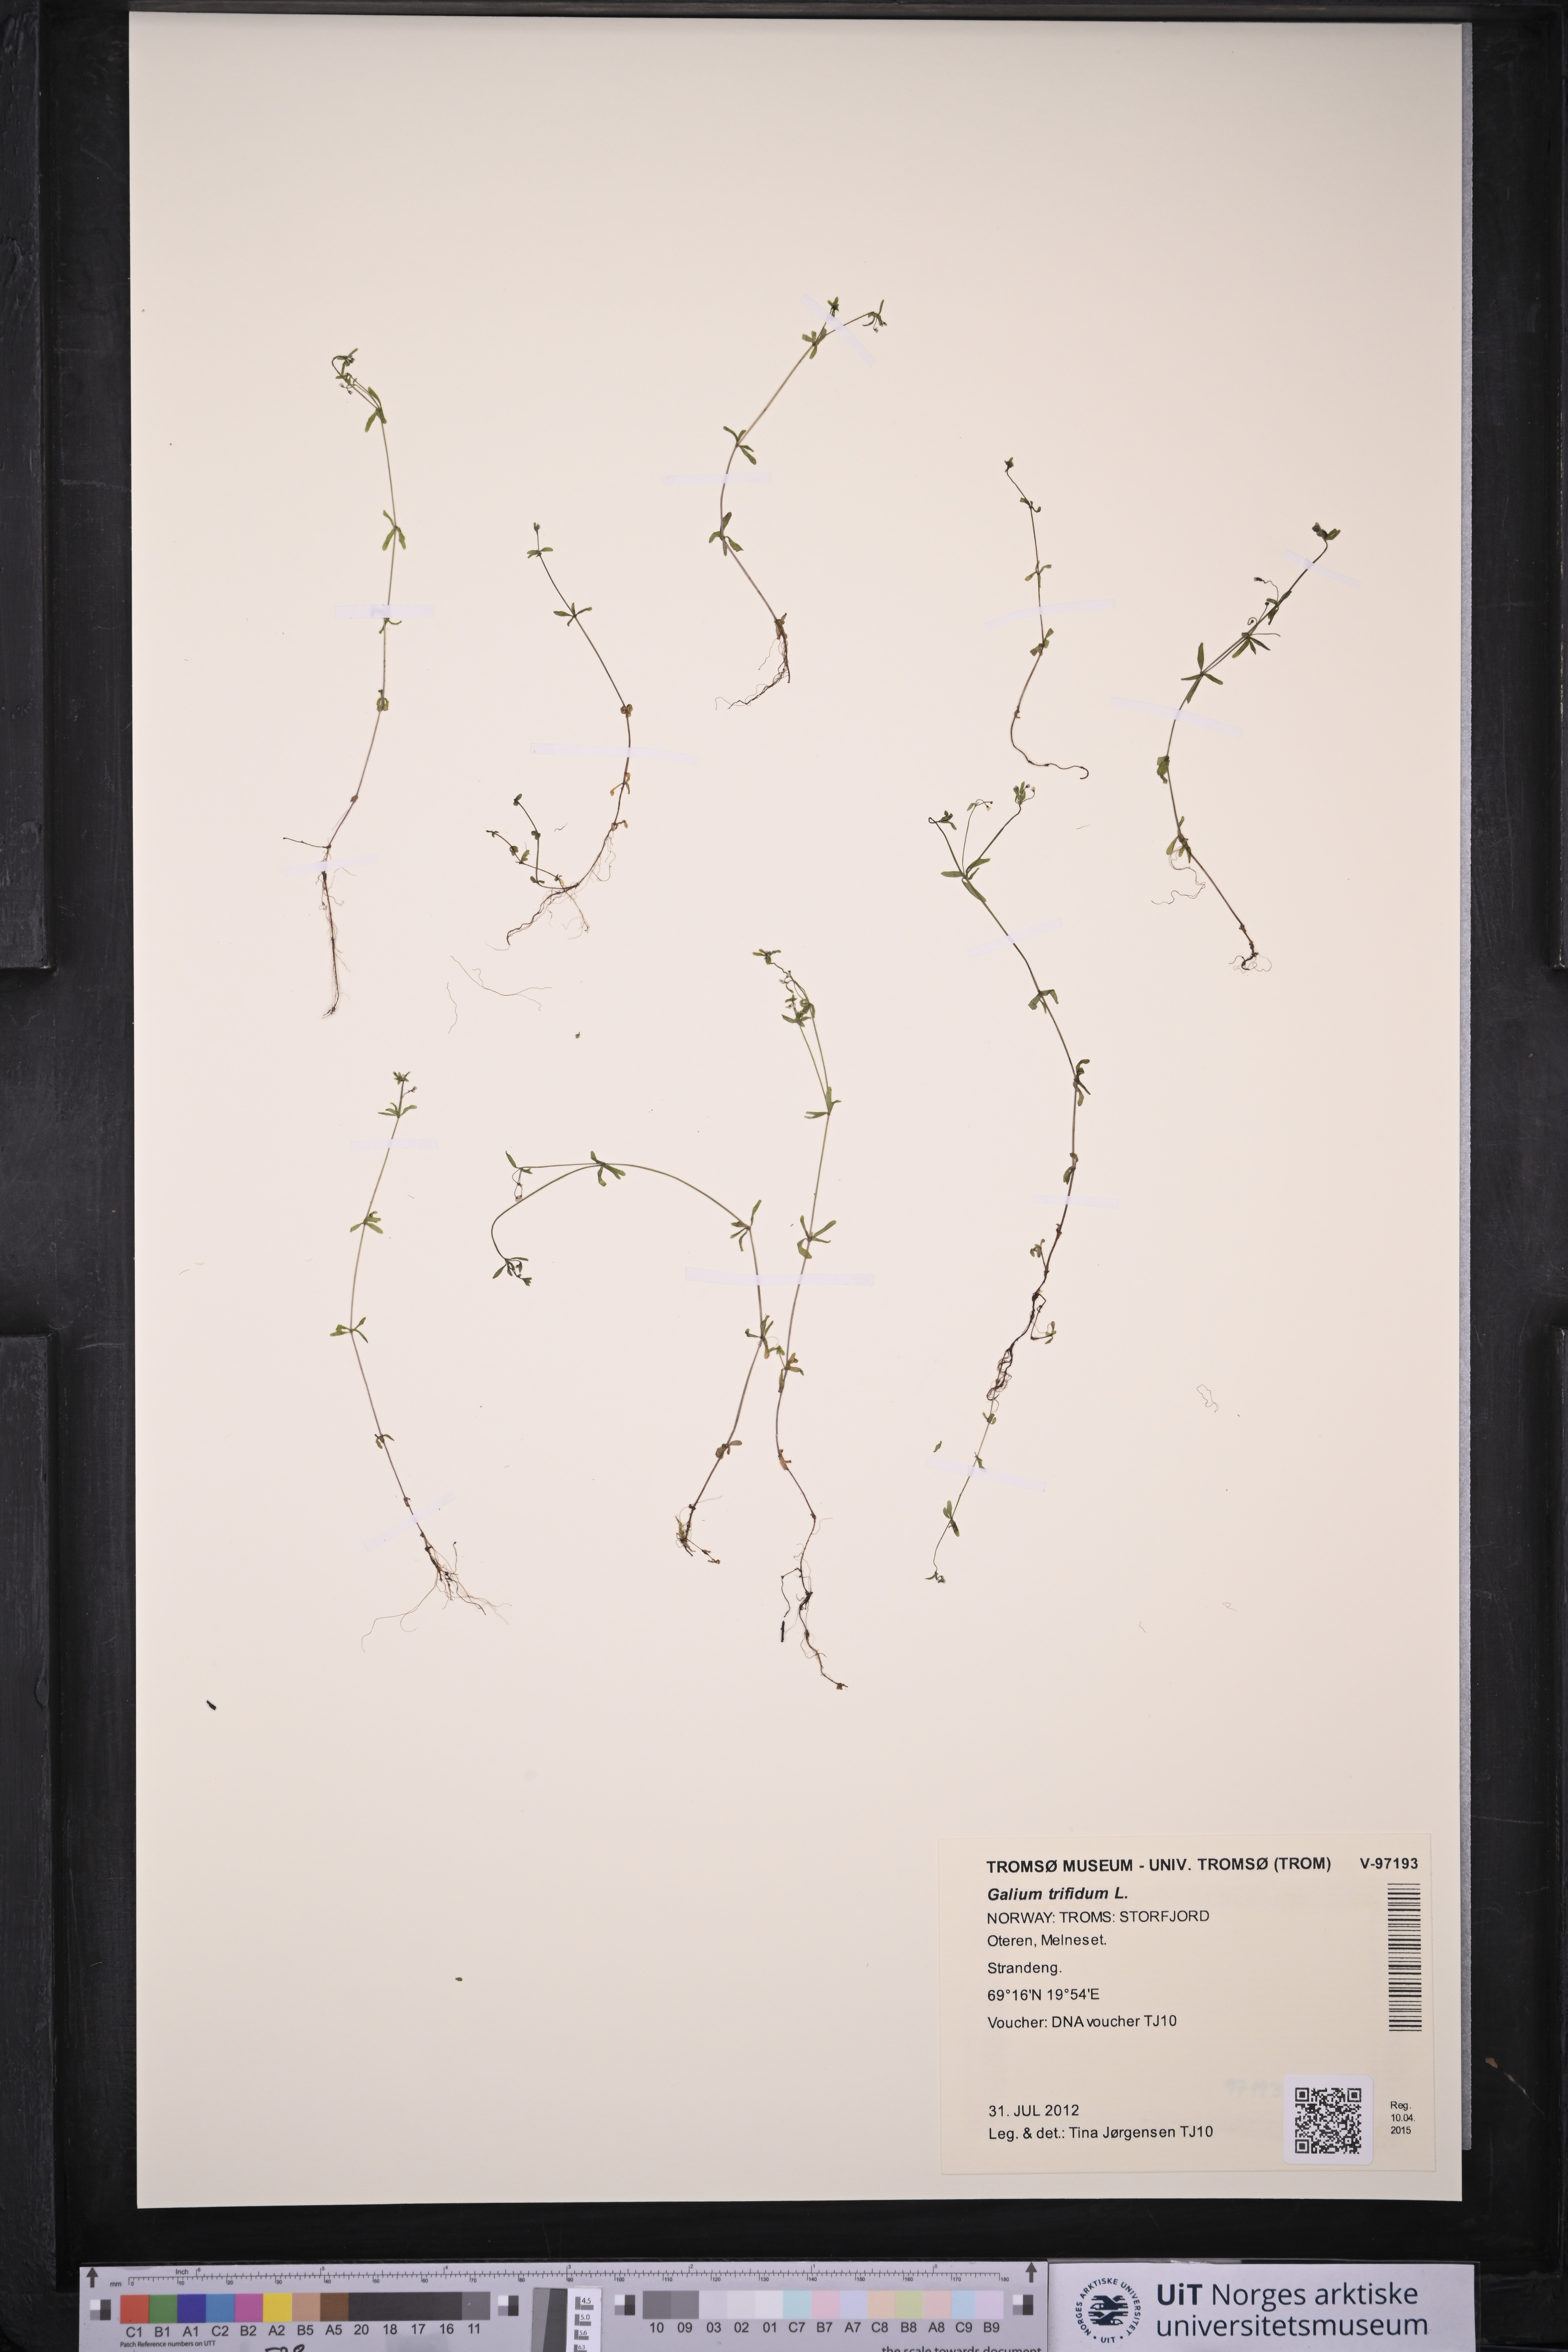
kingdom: Plantae
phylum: Tracheophyta
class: Magnoliopsida
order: Gentianales
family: Rubiaceae
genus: Galium
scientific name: Galium trifidum
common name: Small bedstraw
